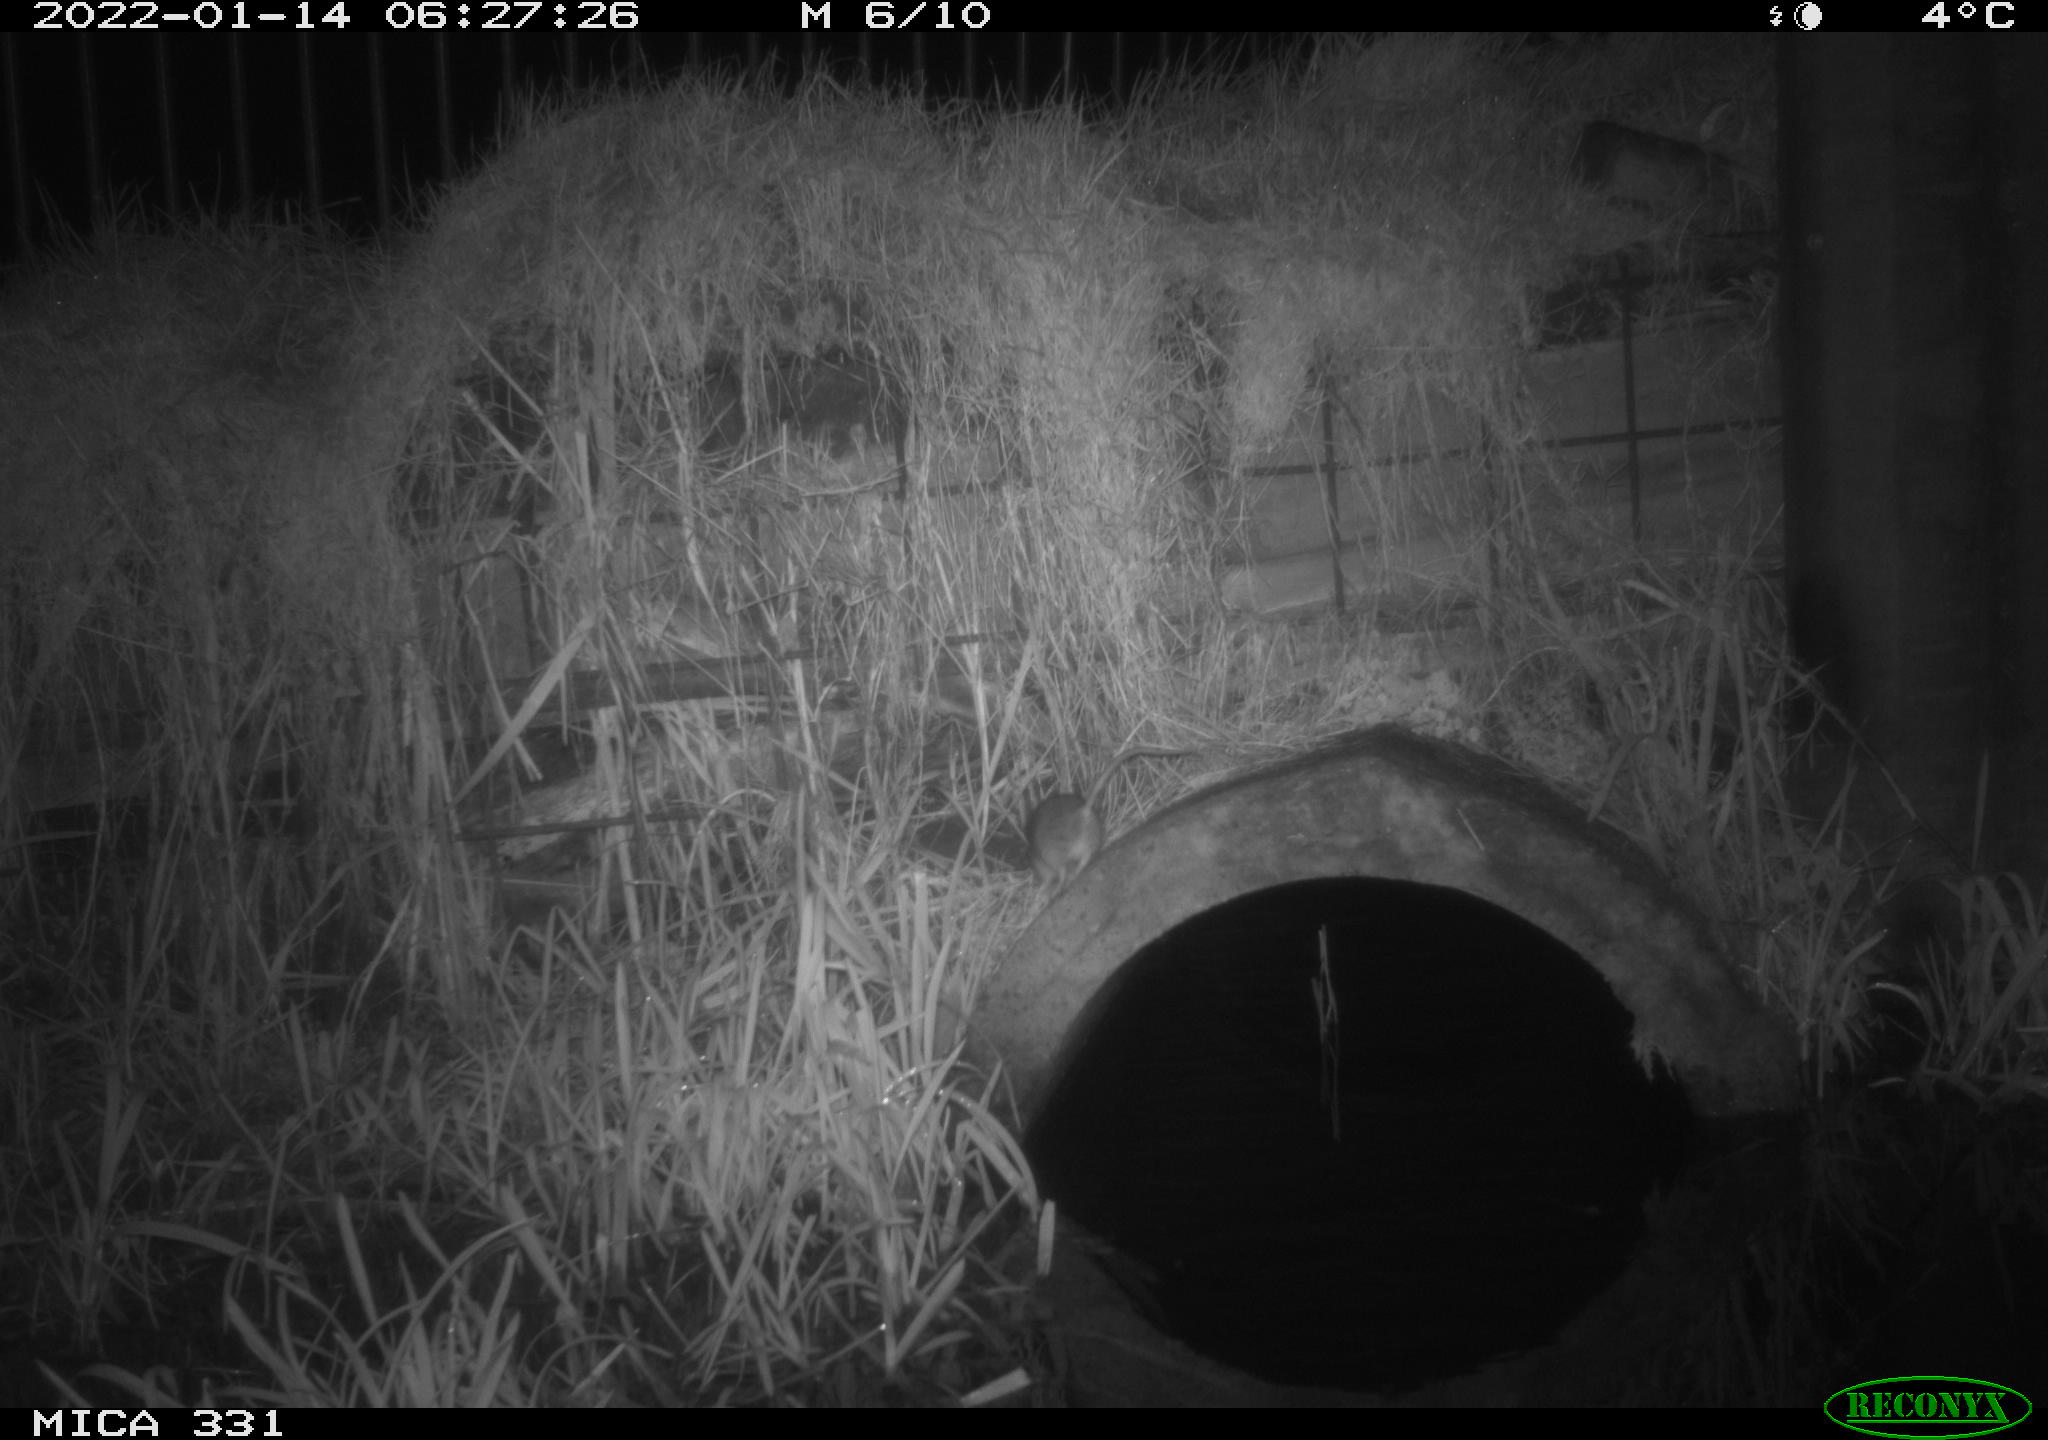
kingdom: Animalia
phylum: Chordata
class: Mammalia
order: Rodentia
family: Muridae
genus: Rattus
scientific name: Rattus norvegicus
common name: Brown rat
